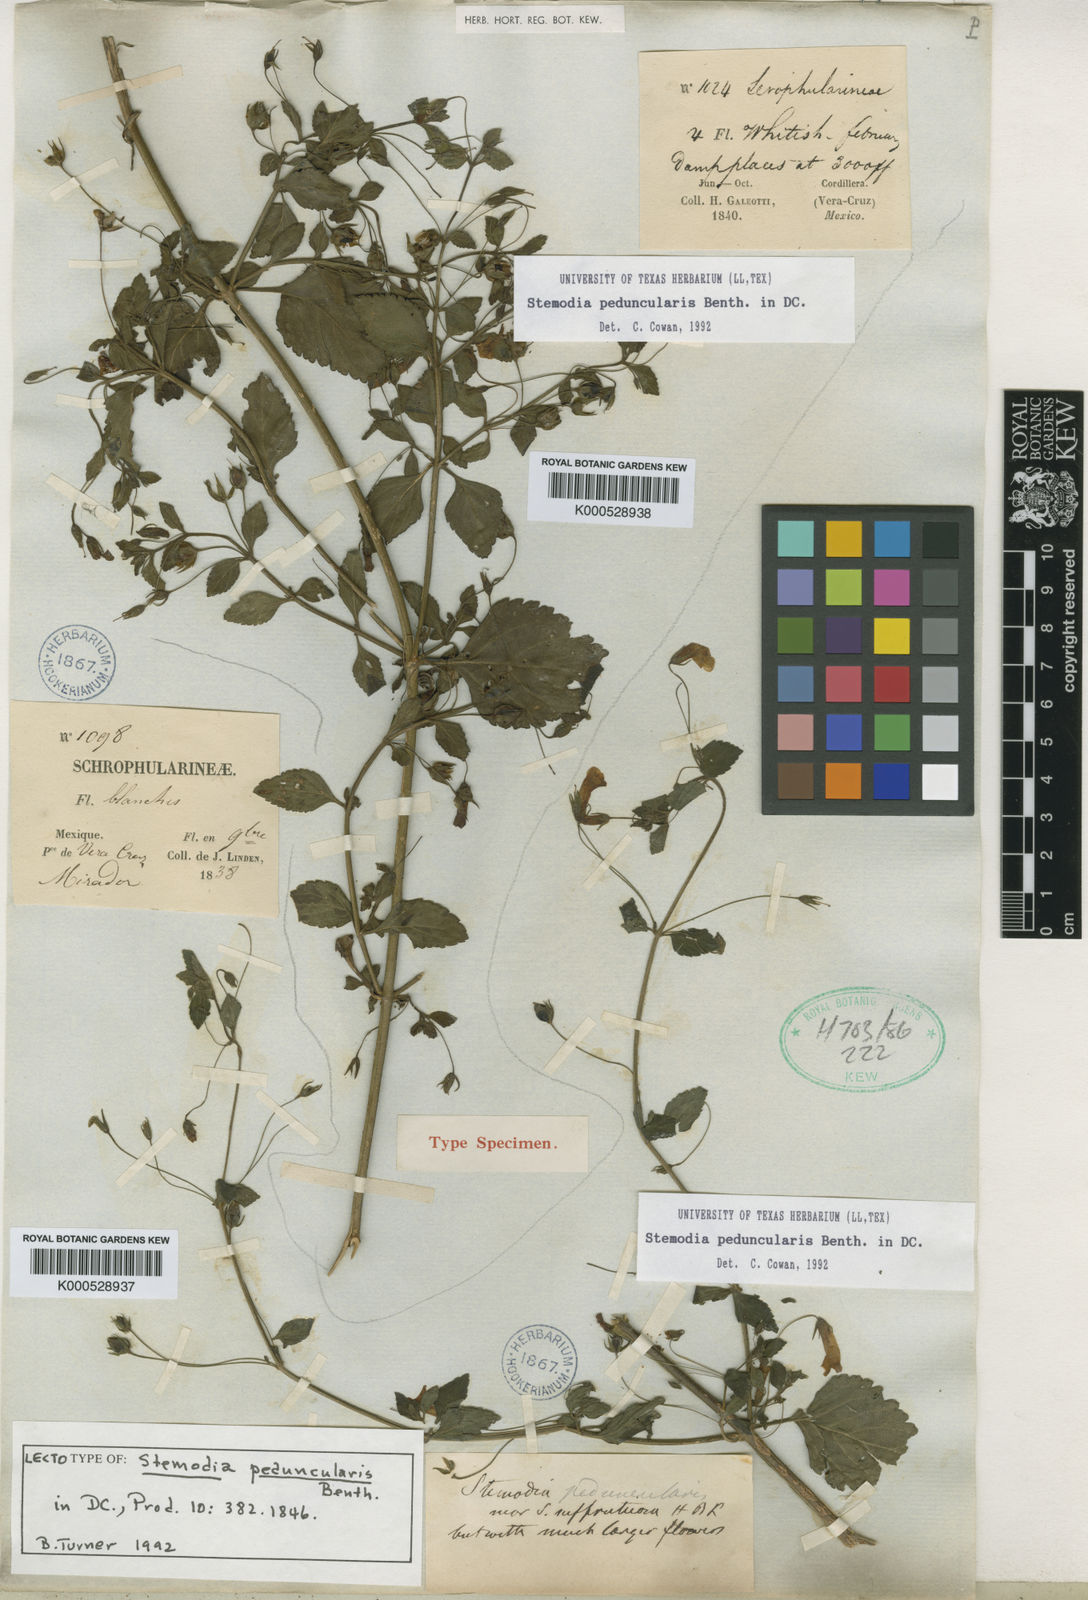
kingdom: Plantae
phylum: Tracheophyta
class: Magnoliopsida
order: Lamiales
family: Plantaginaceae
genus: Stemodia
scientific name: Stemodia peduncularis
